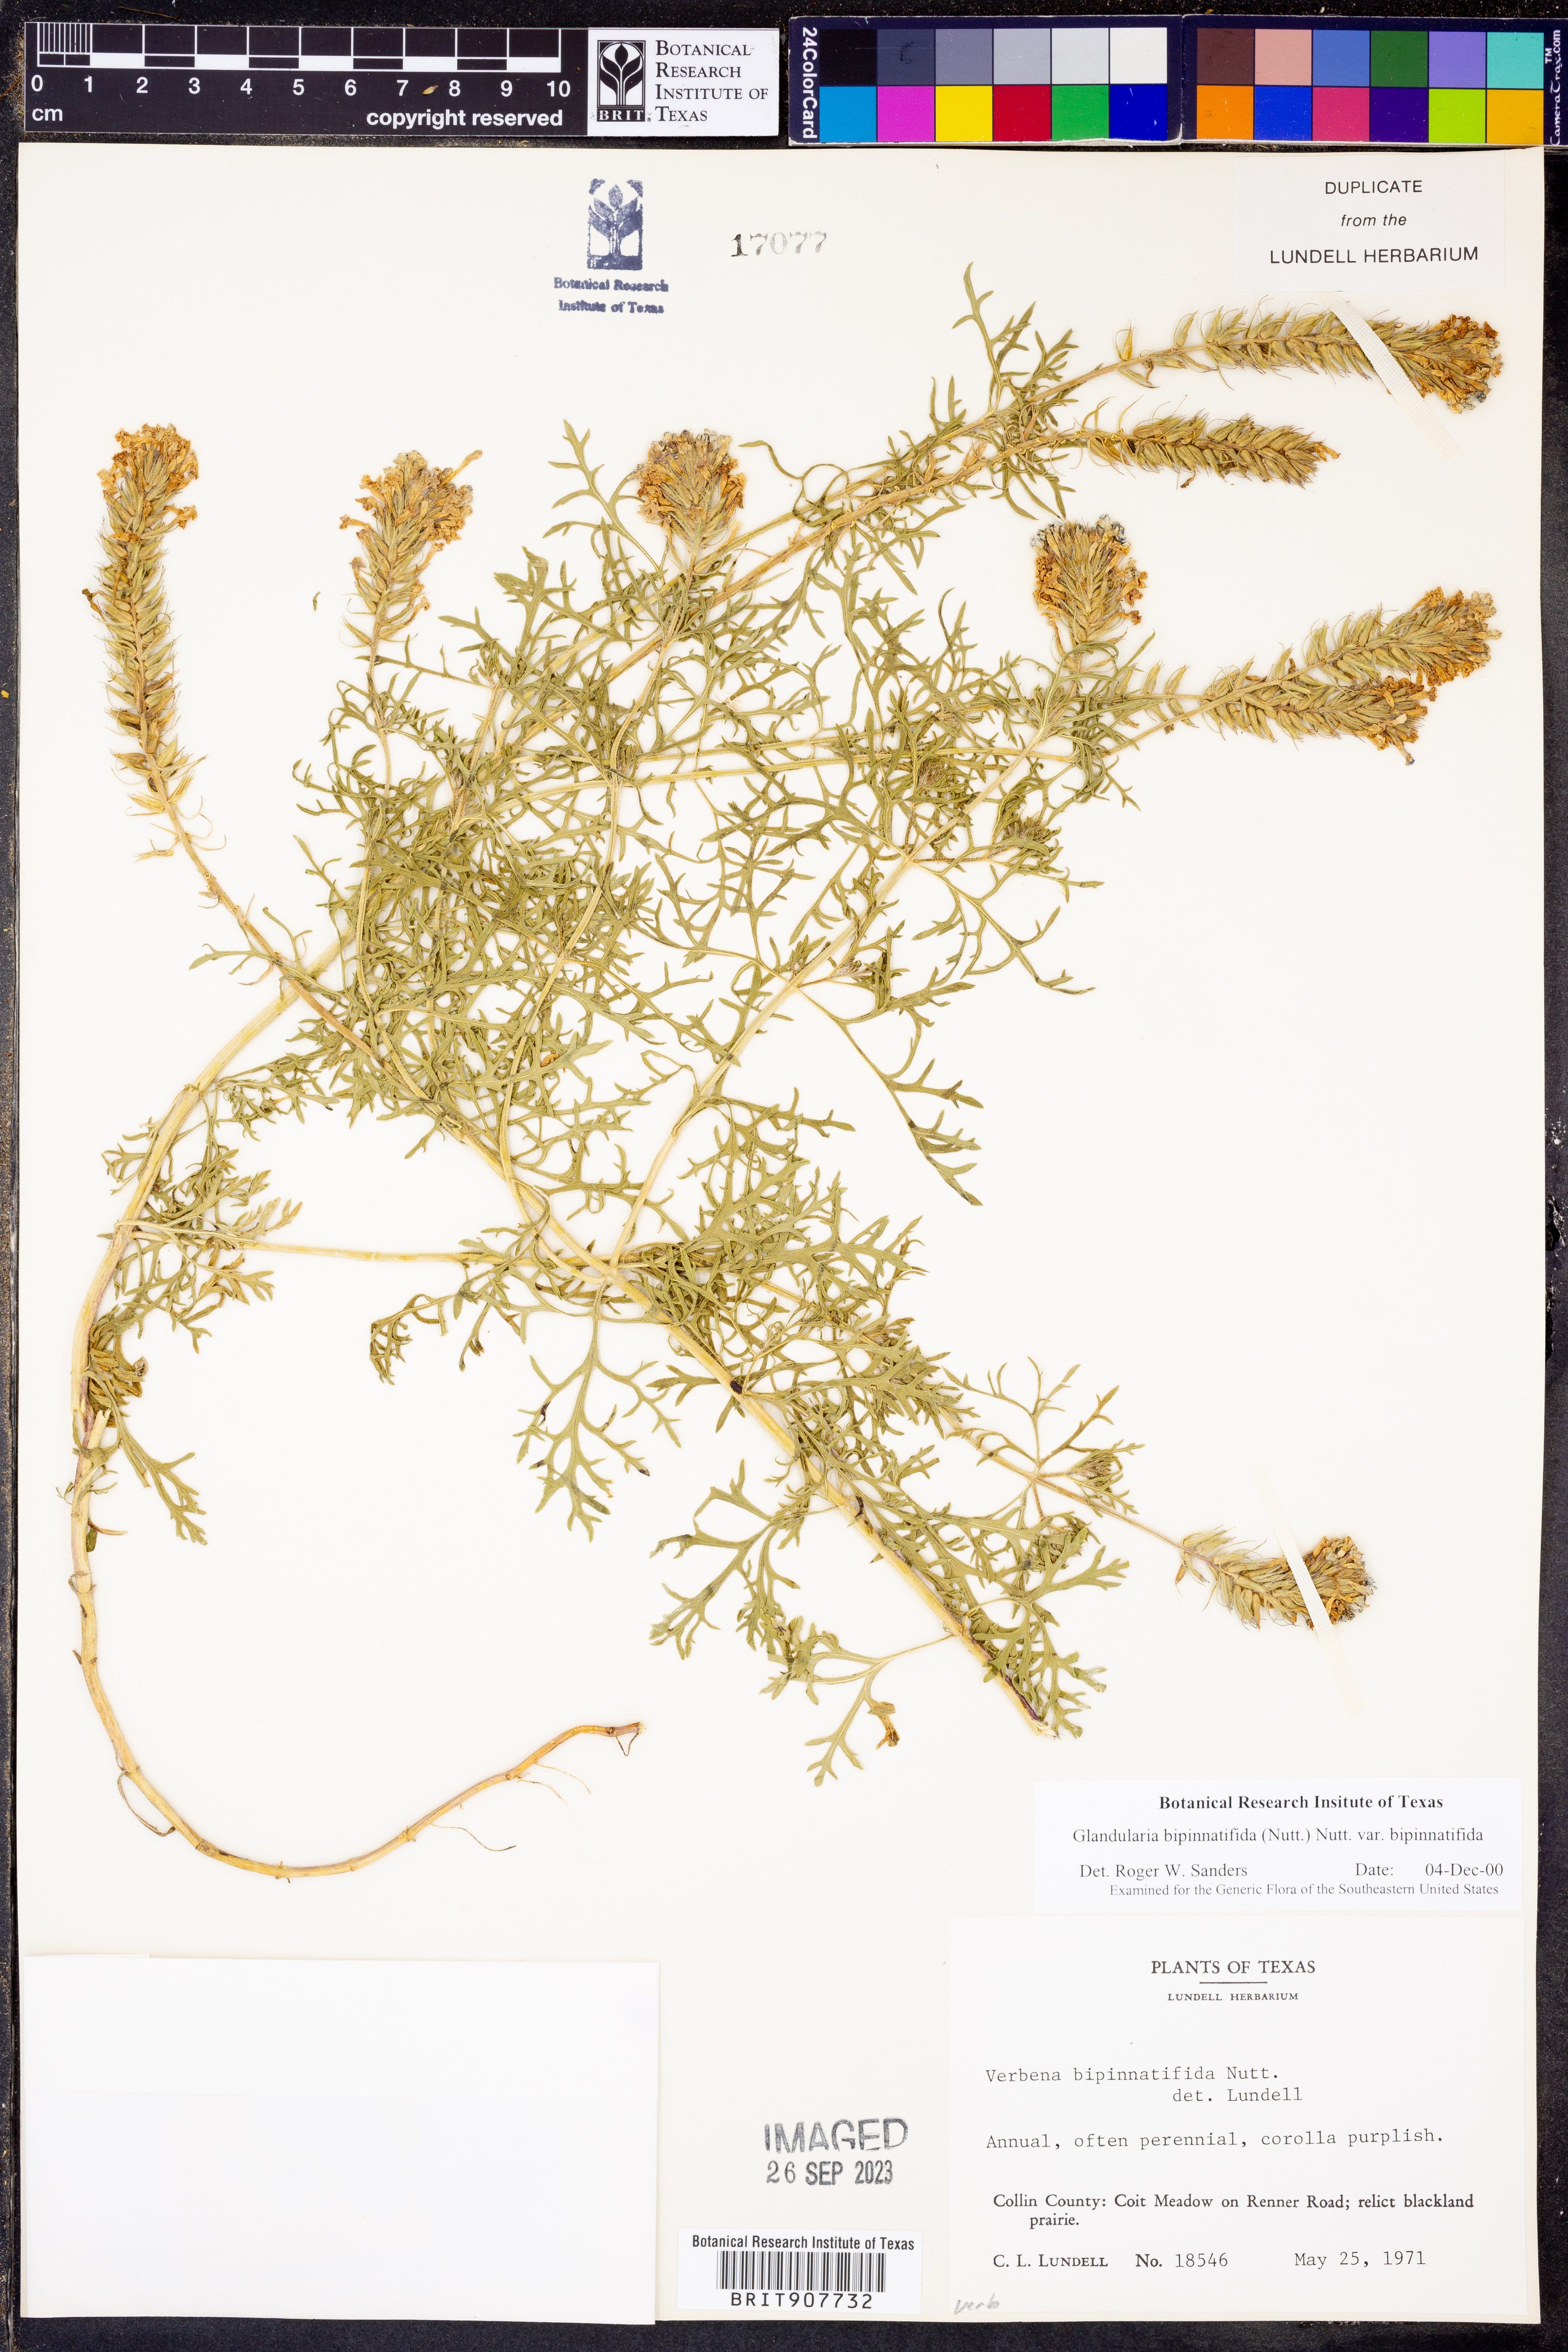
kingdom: Plantae
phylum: Tracheophyta
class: Magnoliopsida
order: Lamiales
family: Verbenaceae
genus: Verbena
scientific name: Verbena bipinnatifida
